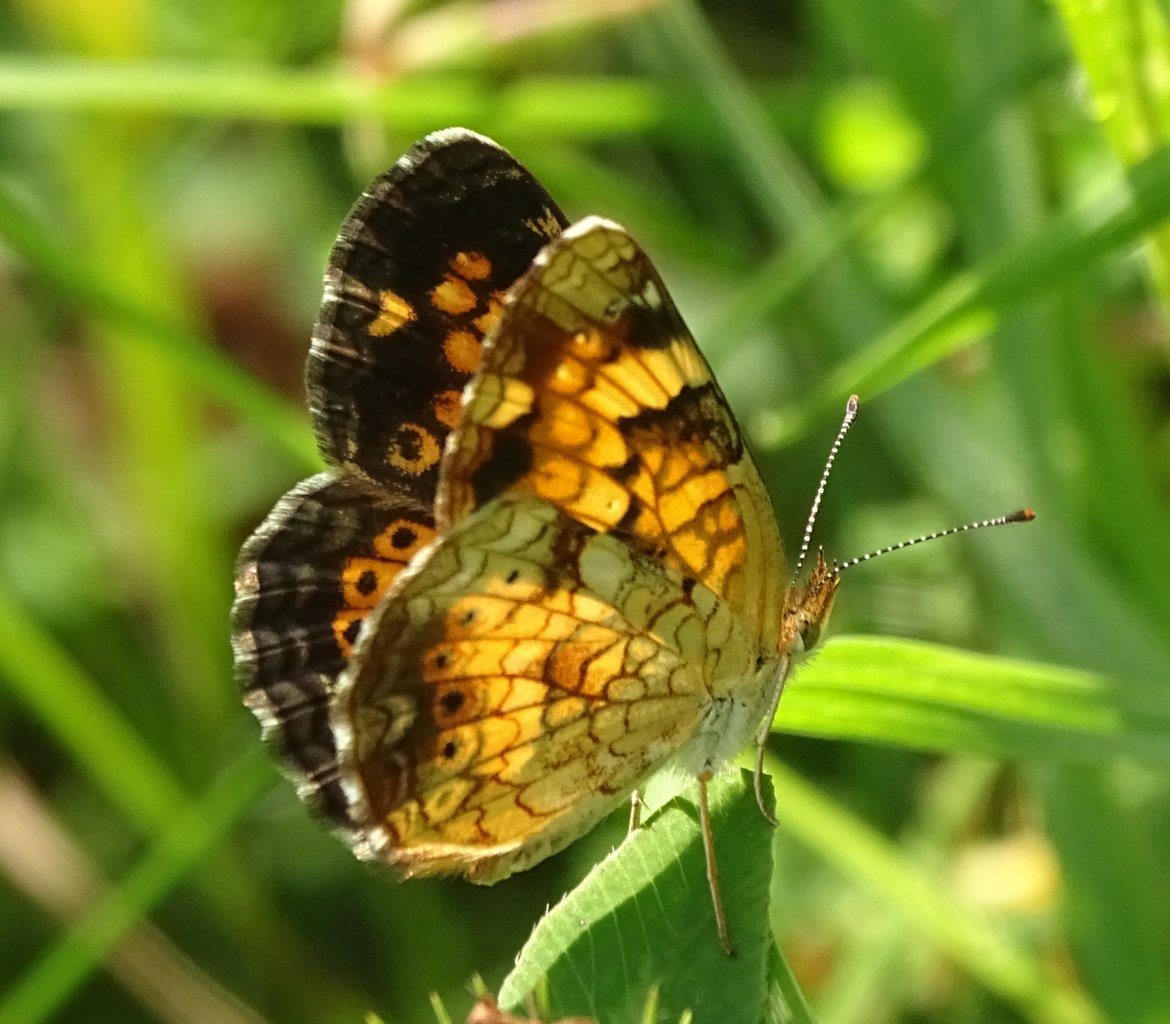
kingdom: Animalia
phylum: Arthropoda
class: Insecta
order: Lepidoptera
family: Nymphalidae
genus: Phyciodes
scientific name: Phyciodes
